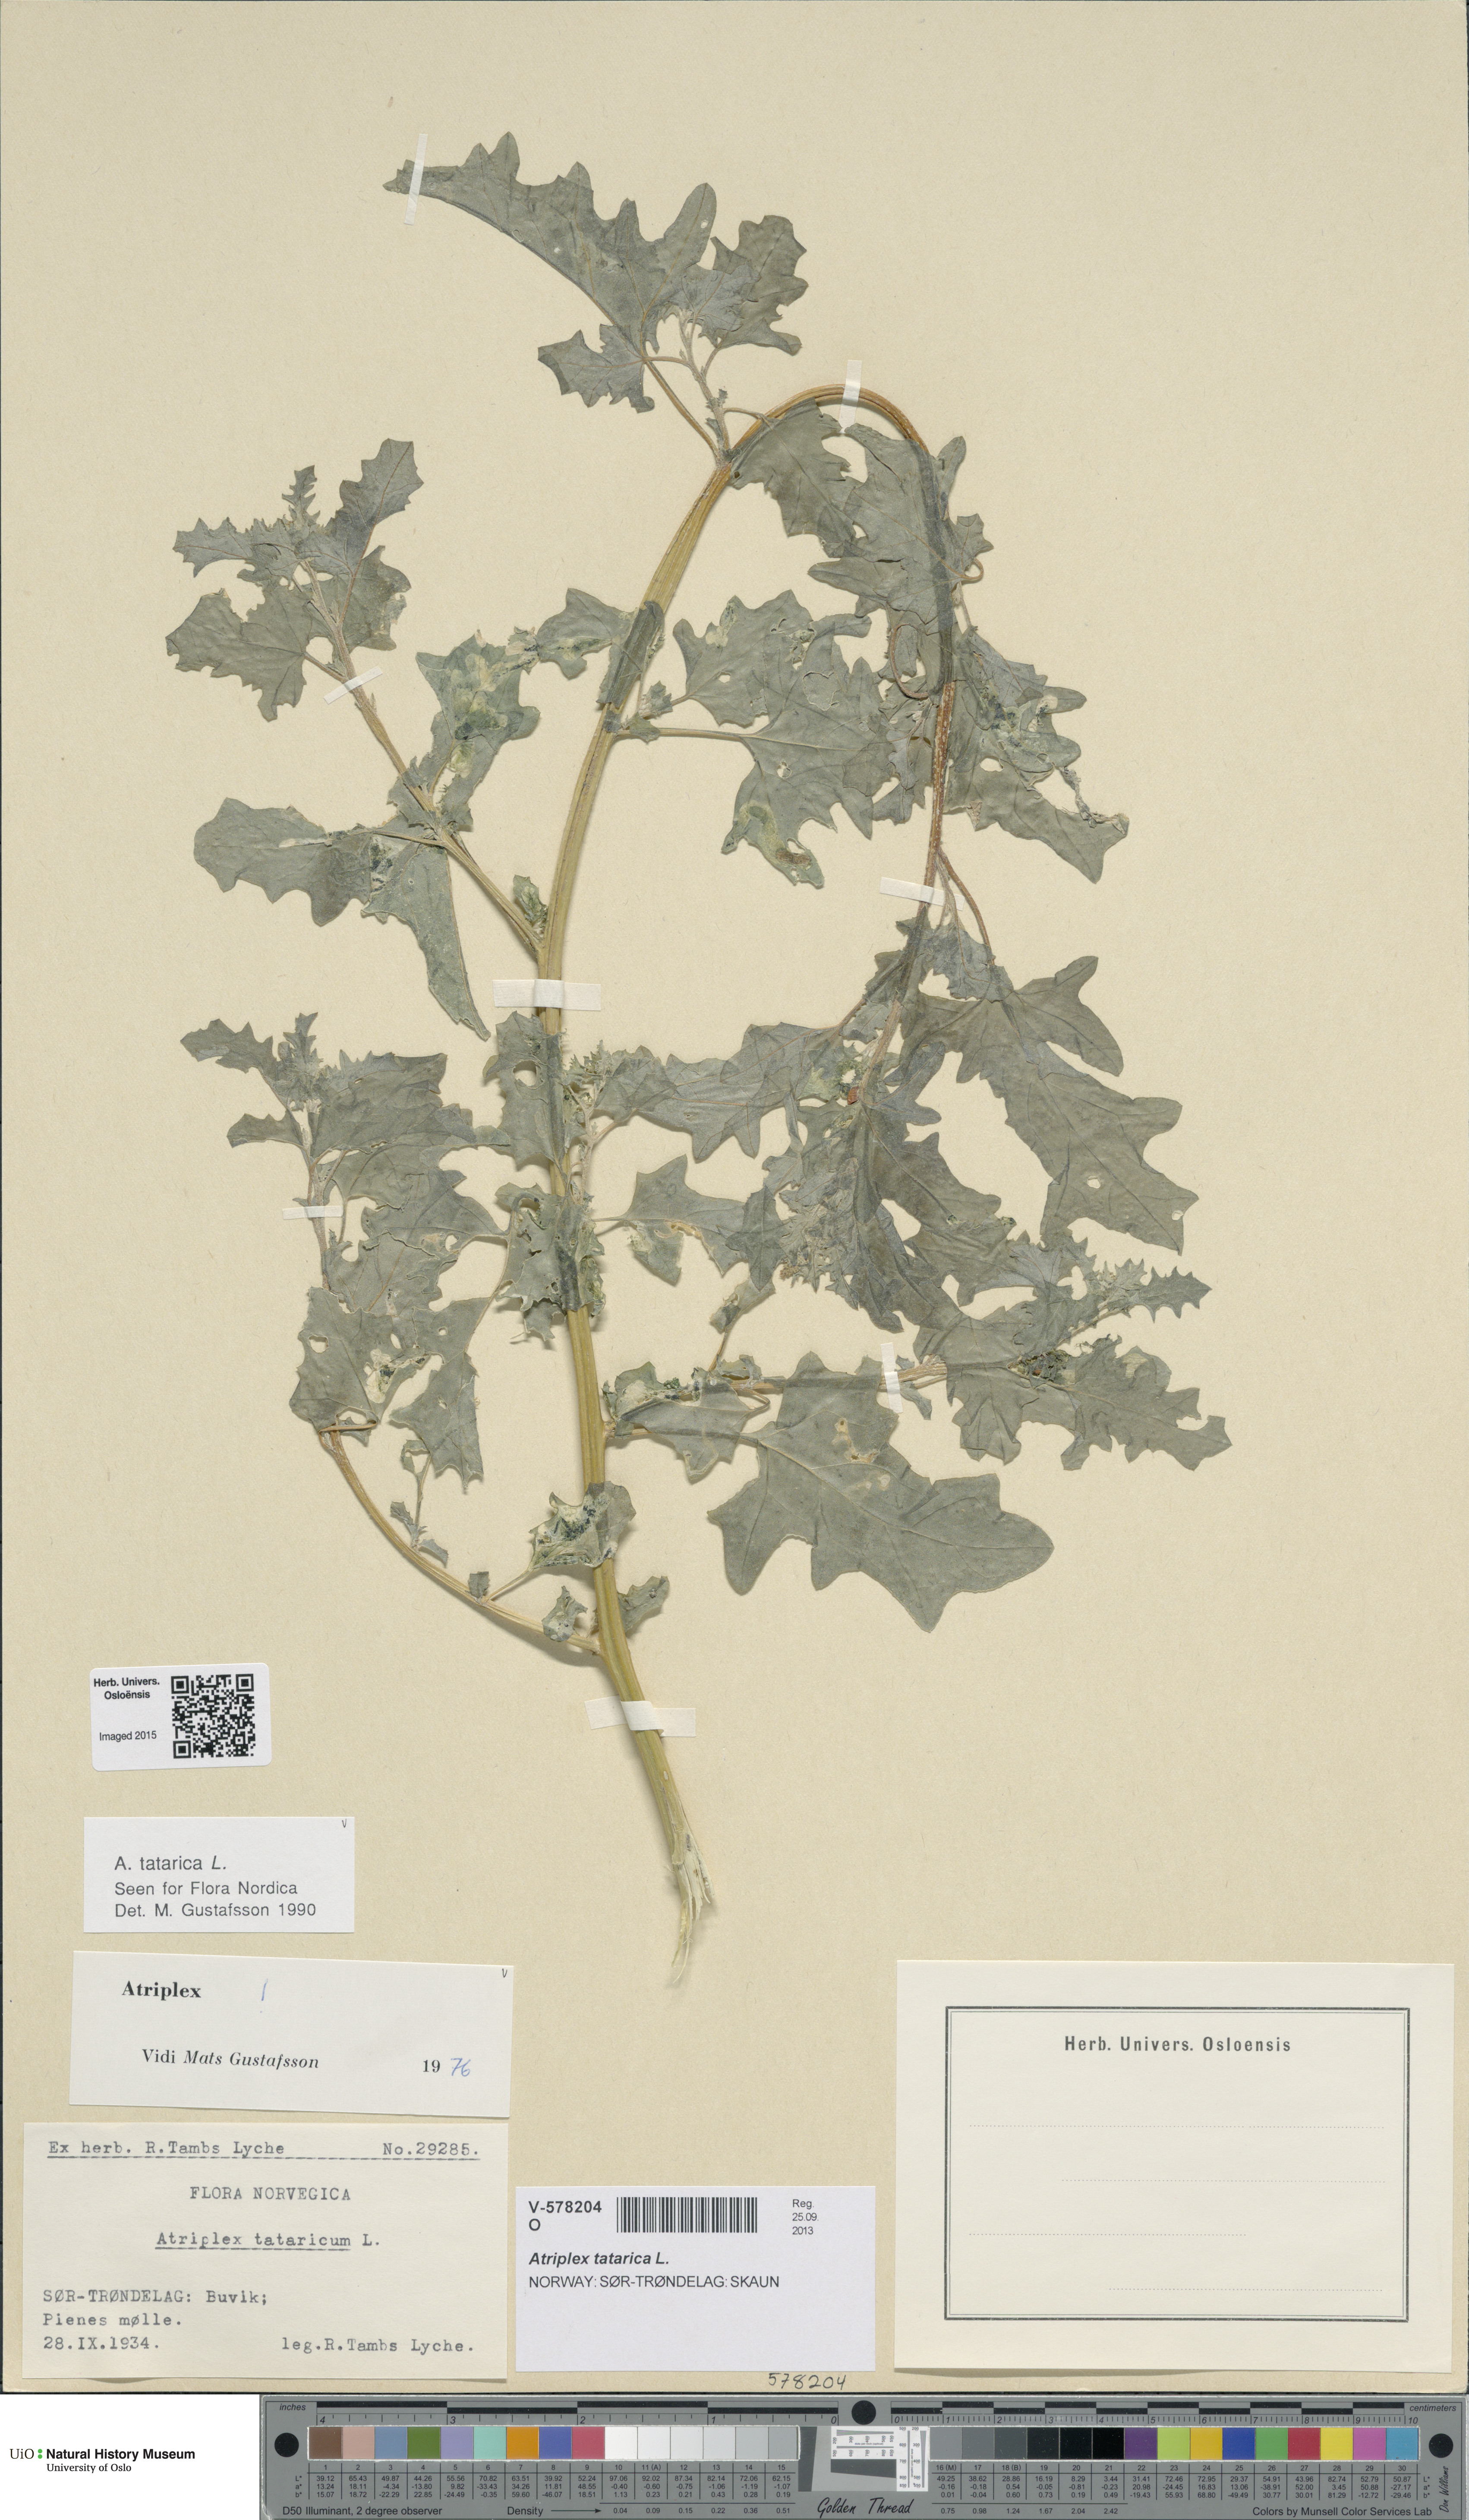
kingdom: Plantae
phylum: Tracheophyta
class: Magnoliopsida
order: Caryophyllales
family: Amaranthaceae
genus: Atriplex
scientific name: Atriplex tatarica
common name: Tatarian orache
